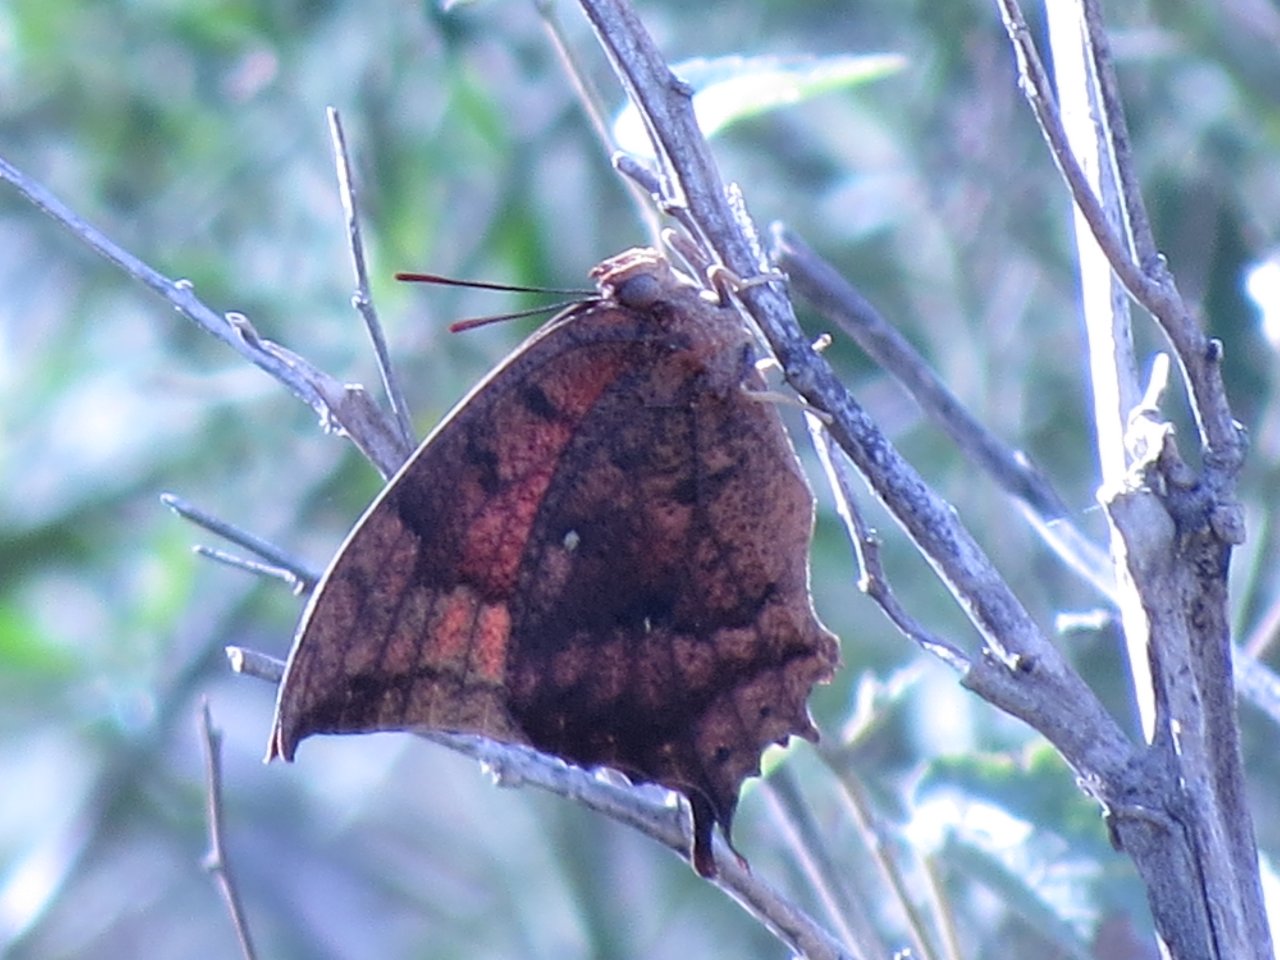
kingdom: Animalia
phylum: Arthropoda
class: Insecta
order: Lepidoptera
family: Nymphalidae
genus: Anaea
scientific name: Anaea aidea
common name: Tropical Leafwing
